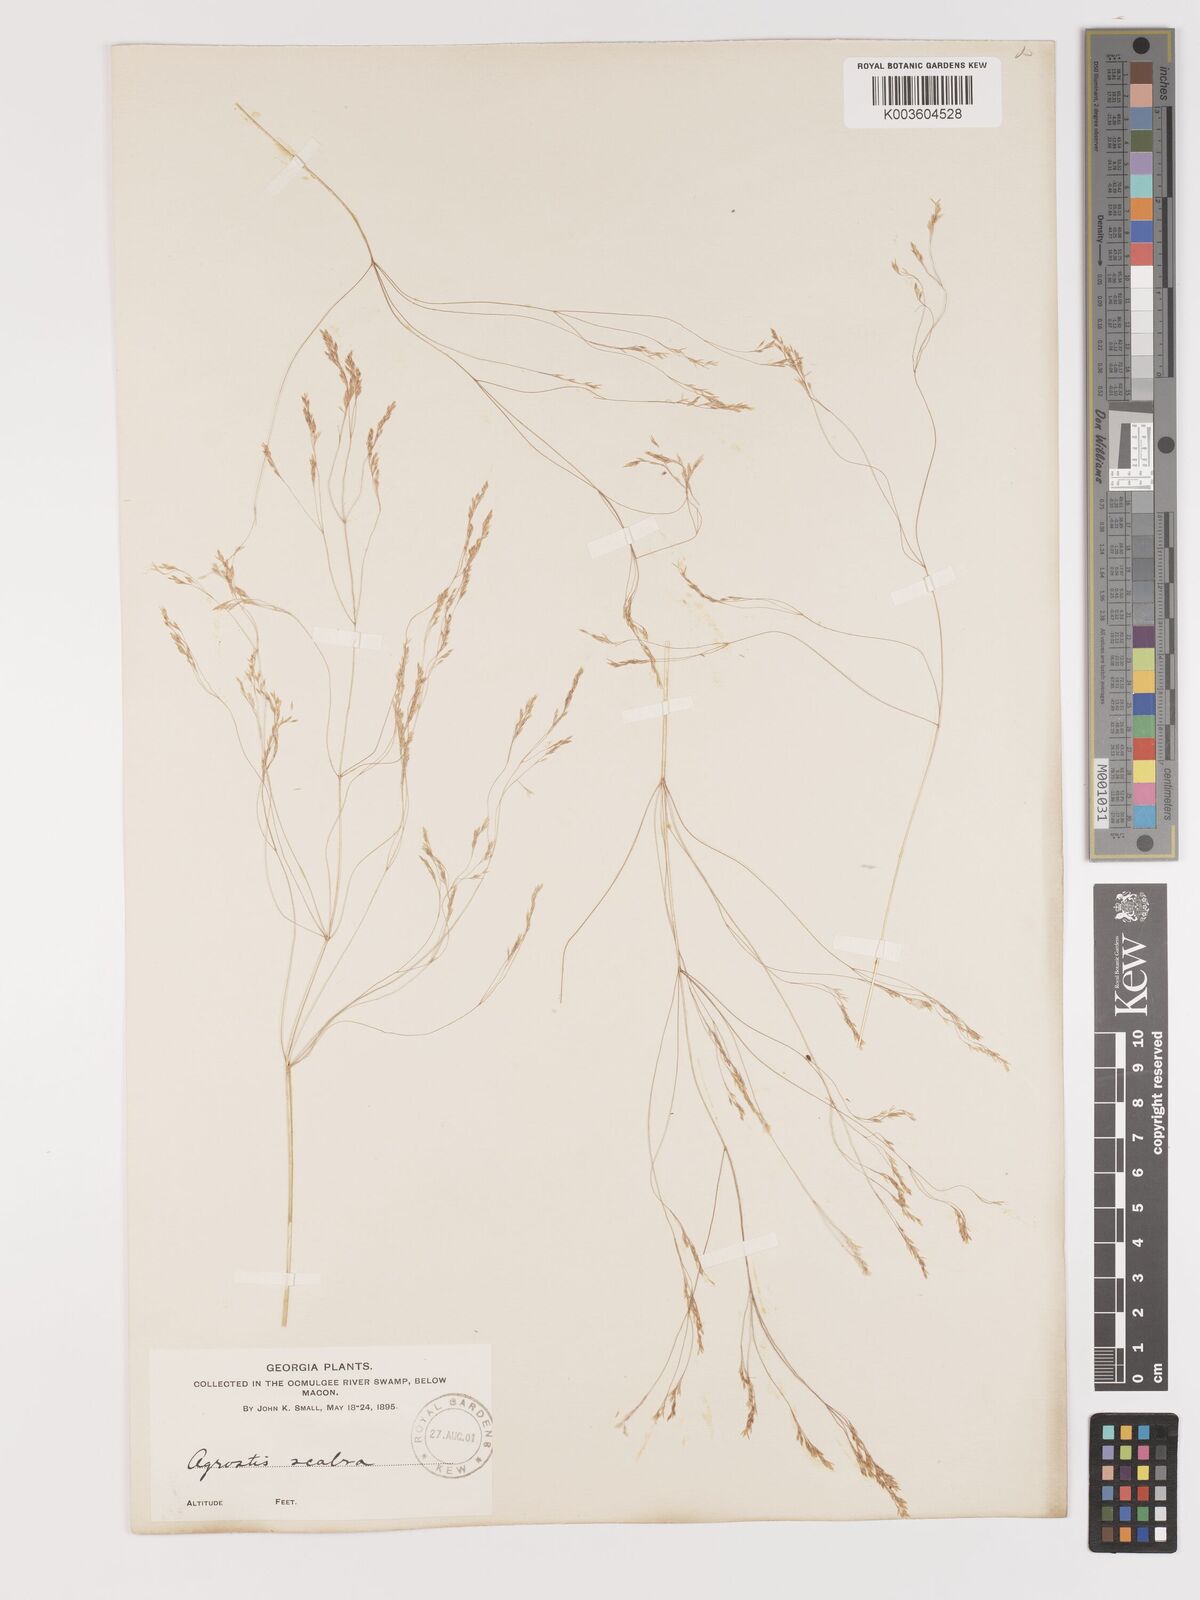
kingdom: Plantae
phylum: Tracheophyta
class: Liliopsida
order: Poales
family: Poaceae
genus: Agrostis
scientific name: Agrostis hyemalis
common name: Small bent
